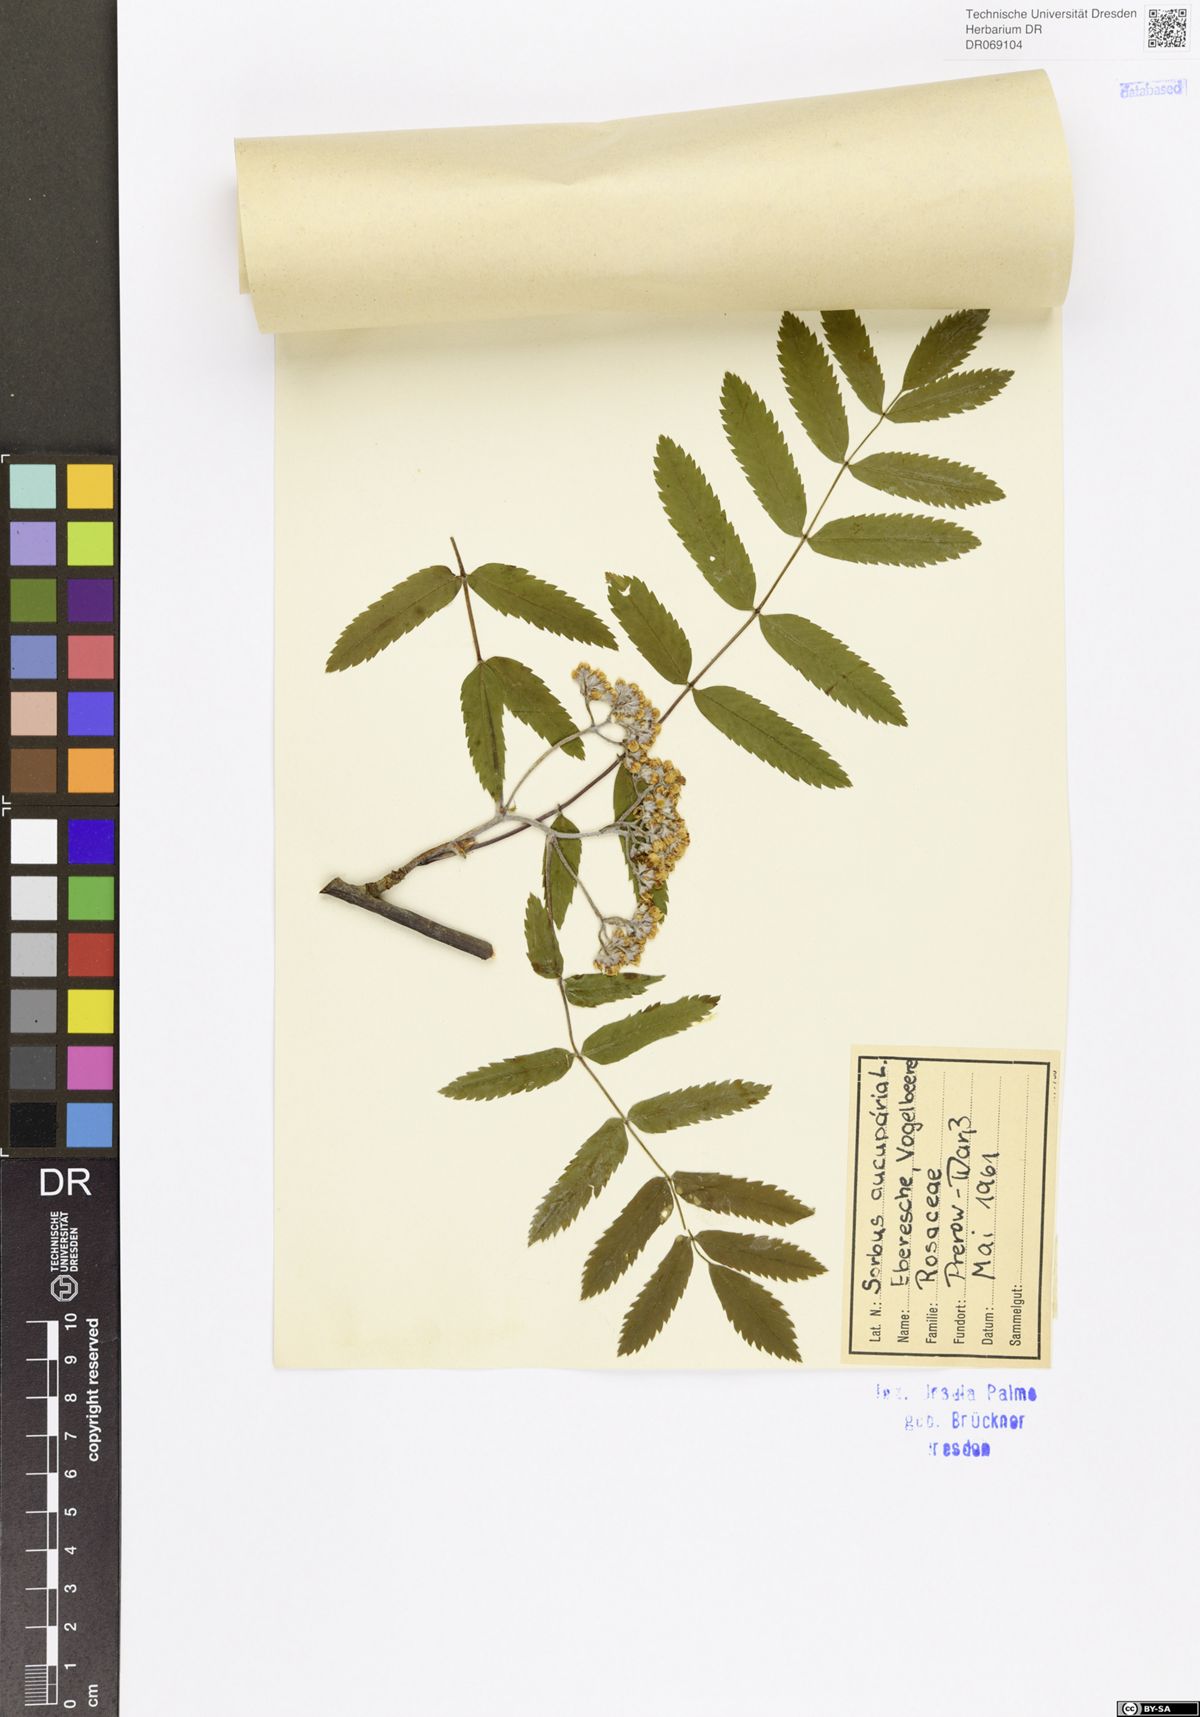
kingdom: Plantae
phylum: Tracheophyta
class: Magnoliopsida
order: Rosales
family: Rosaceae
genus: Sorbus
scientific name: Sorbus aucuparia
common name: Rowan
